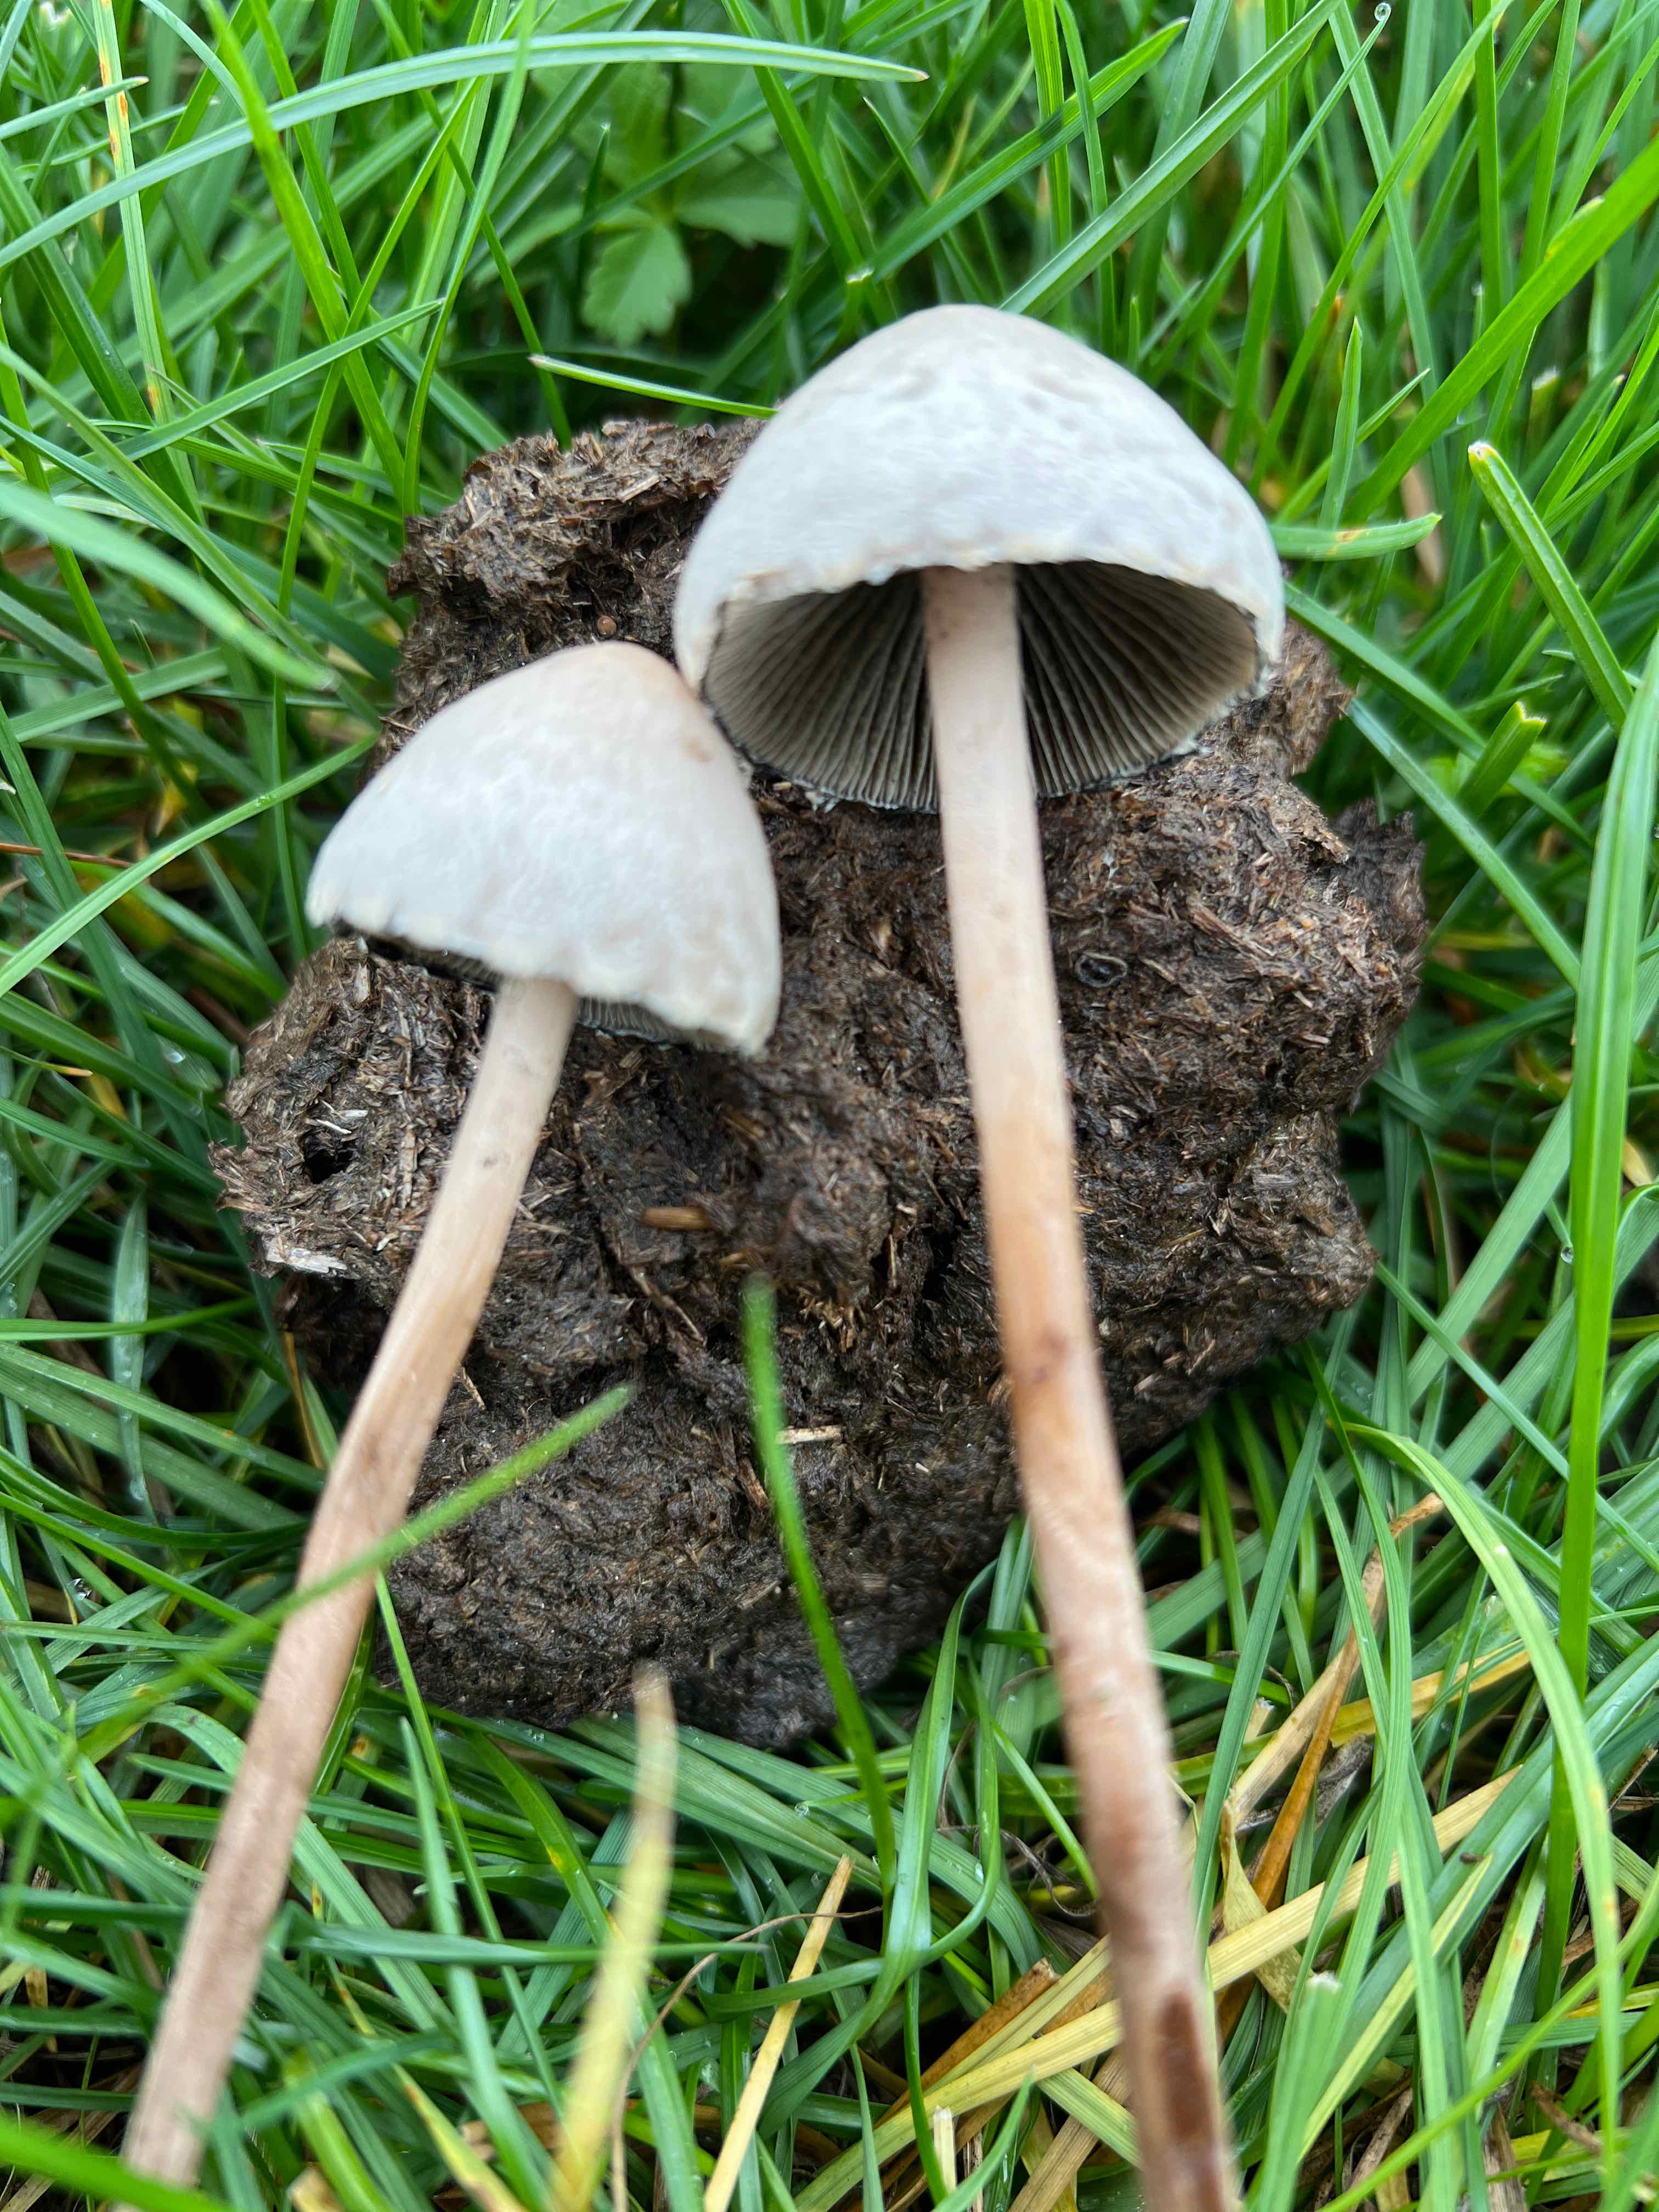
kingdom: Fungi
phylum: Basidiomycota
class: Agaricomycetes
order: Agaricales
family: Bolbitiaceae
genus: Panaeolus
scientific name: Panaeolus
